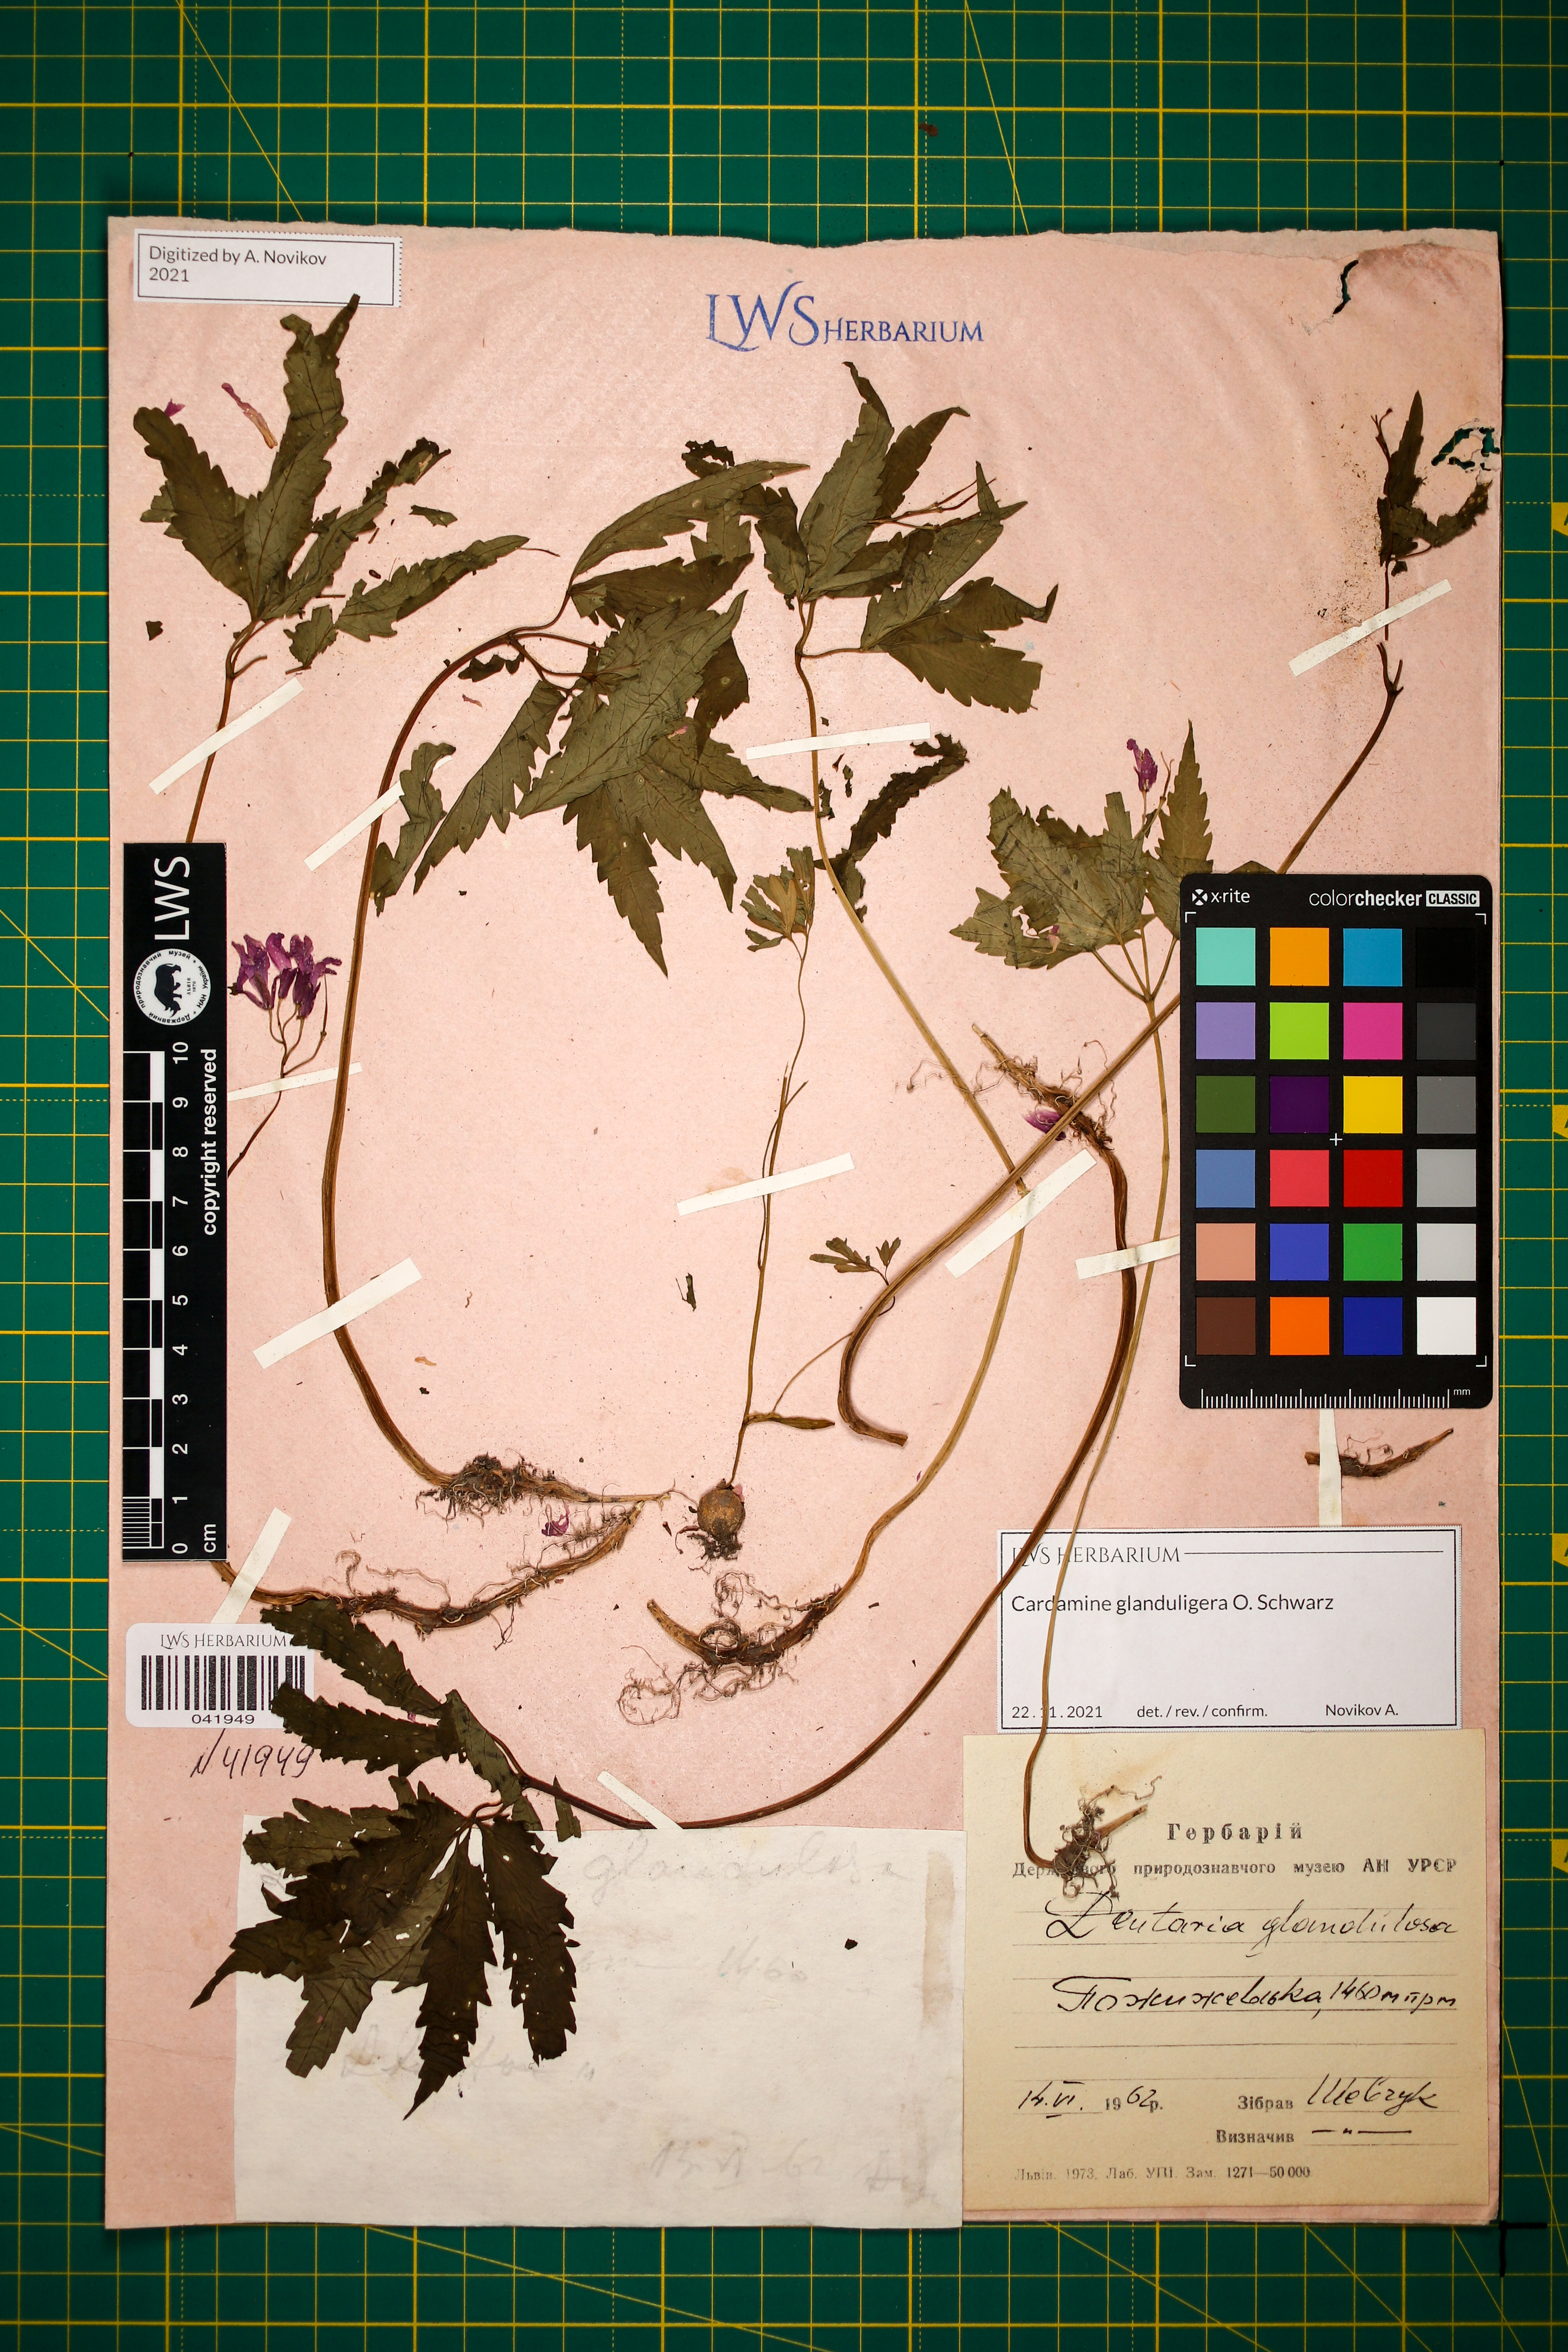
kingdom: Plantae
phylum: Tracheophyta
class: Magnoliopsida
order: Brassicales
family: Brassicaceae
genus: Cardamine
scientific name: Cardamine glanduligera
